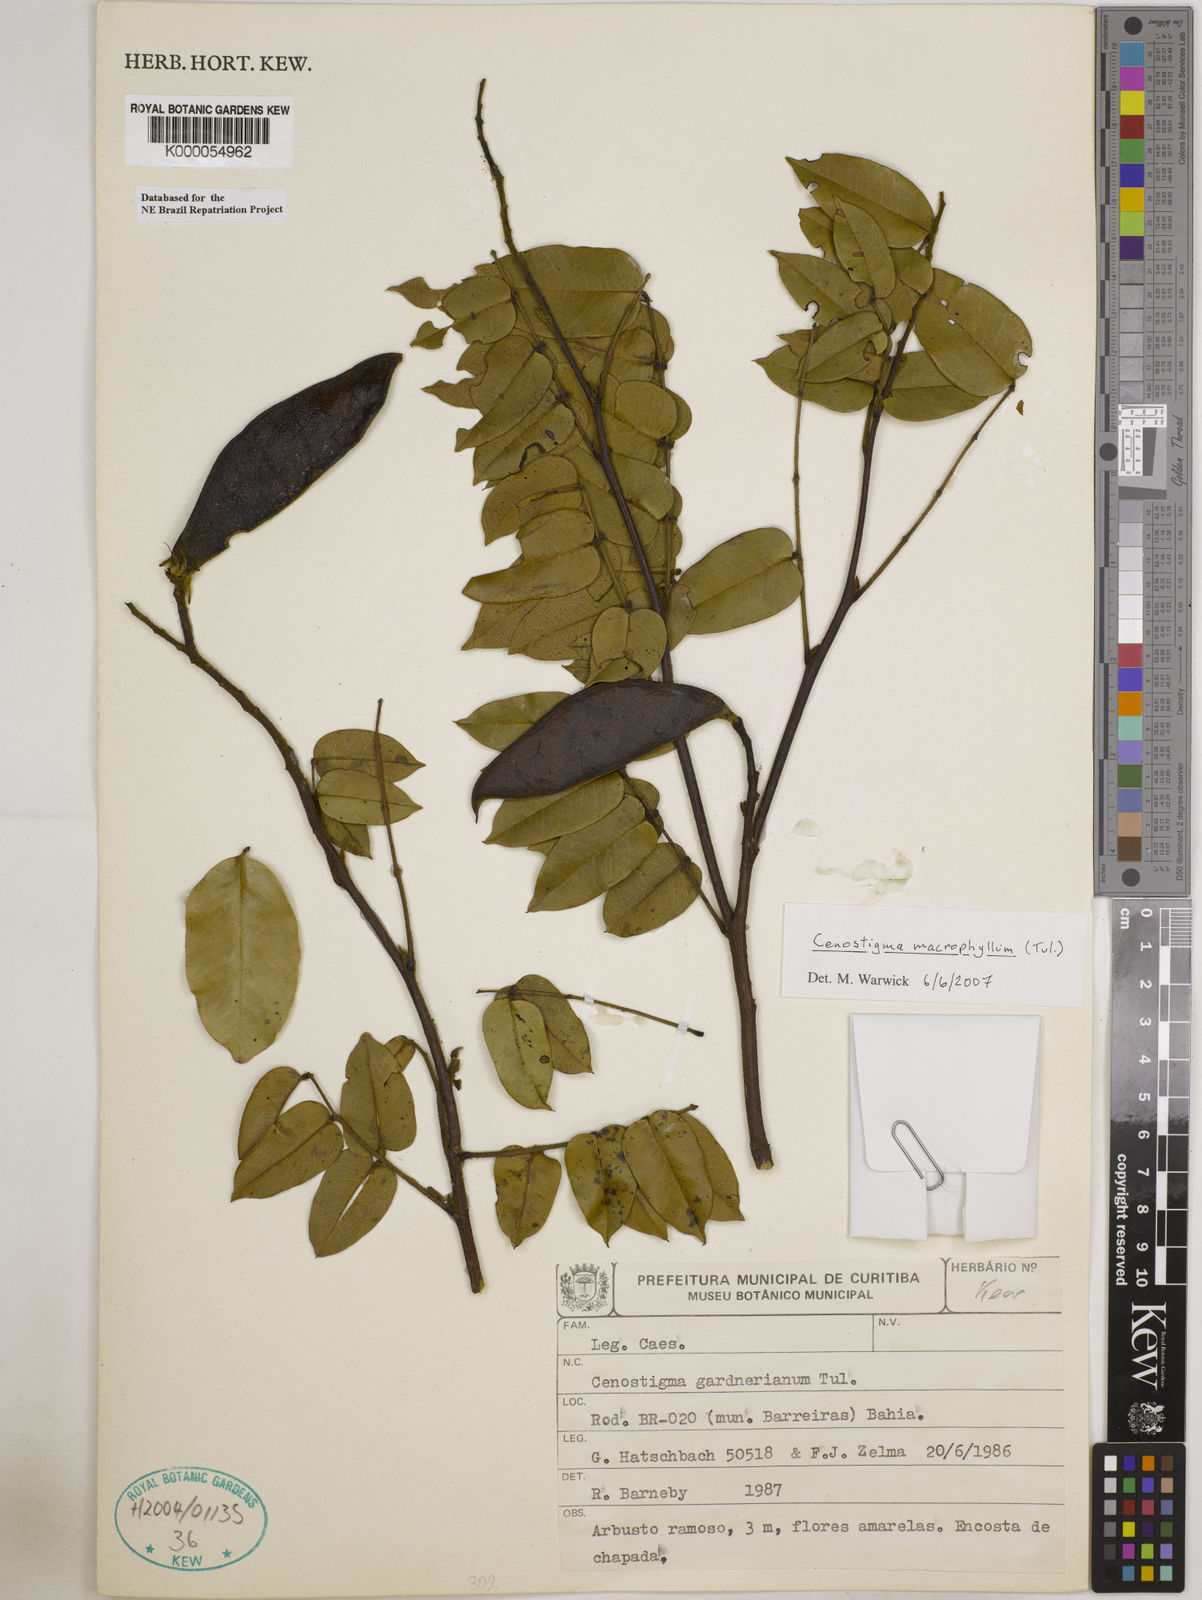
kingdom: Plantae
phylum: Tracheophyta
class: Magnoliopsida
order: Fabales
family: Fabaceae
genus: Cenostigma
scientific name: Cenostigma macrophyllum
